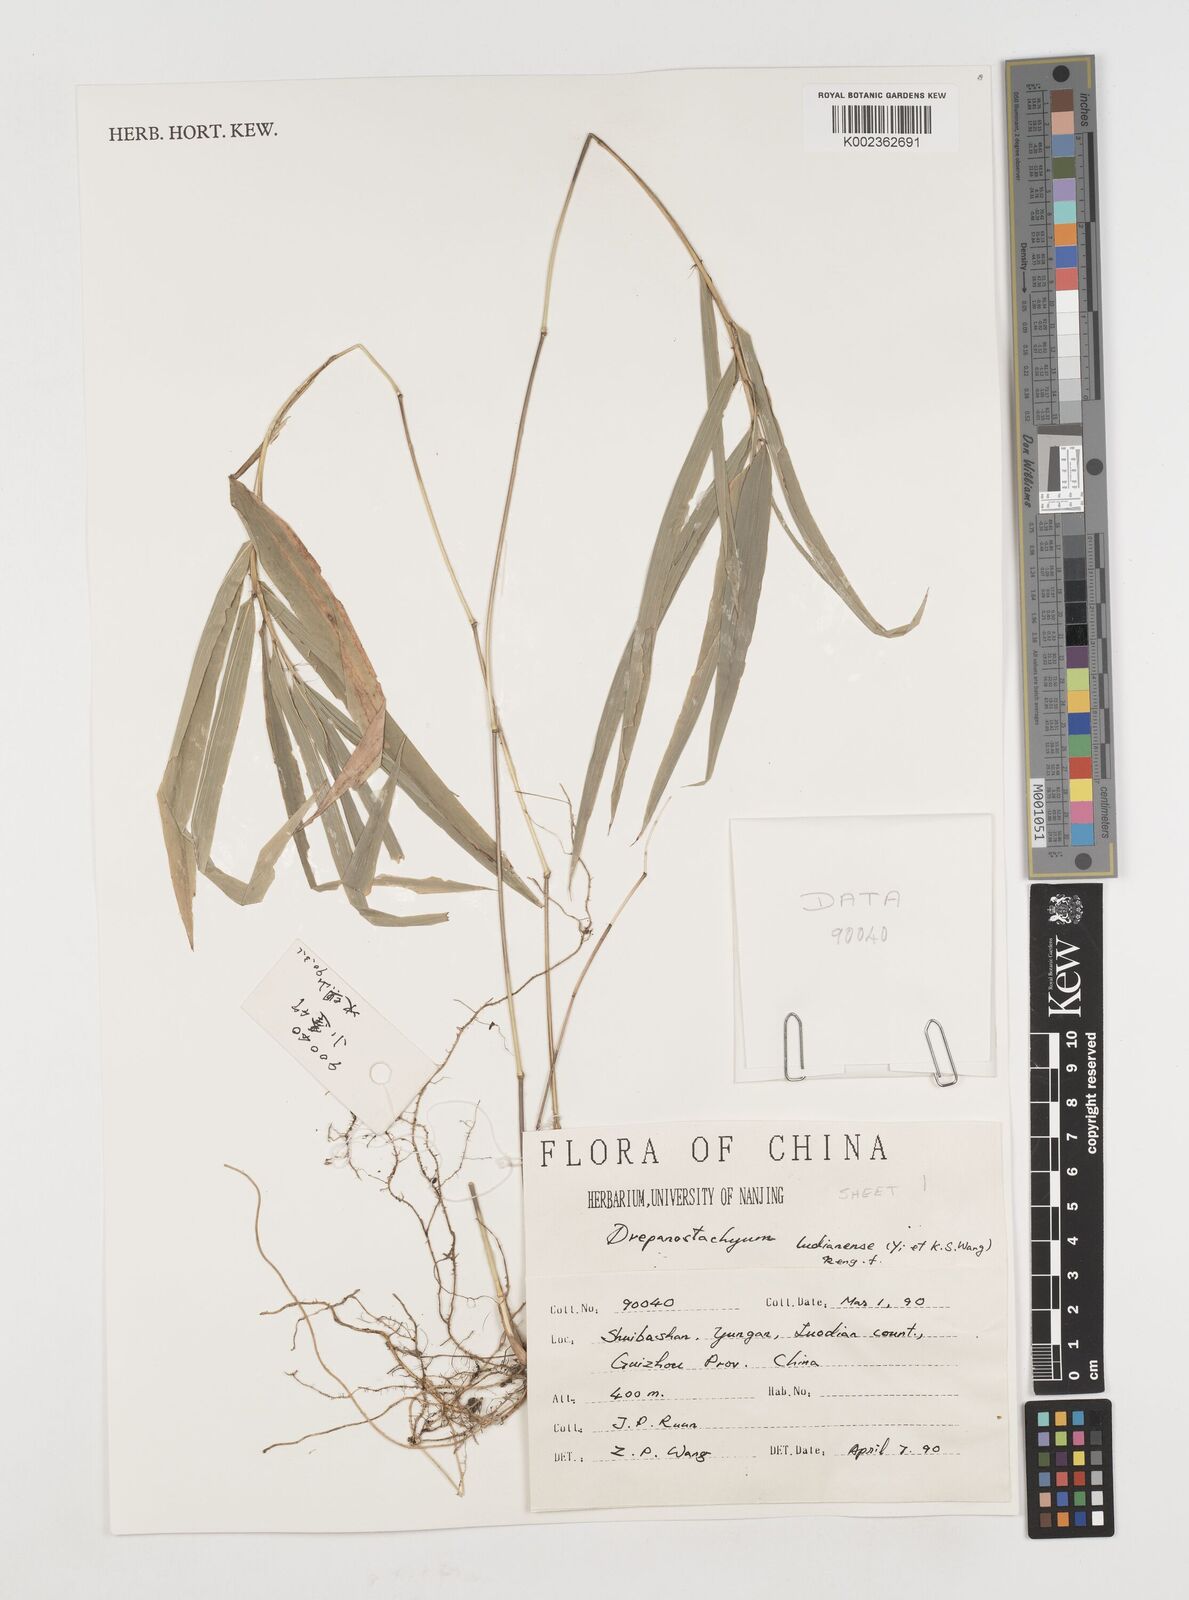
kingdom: Plantae
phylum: Tracheophyta
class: Liliopsida
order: Poales
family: Poaceae
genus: Acidosasa
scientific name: Acidosasa
